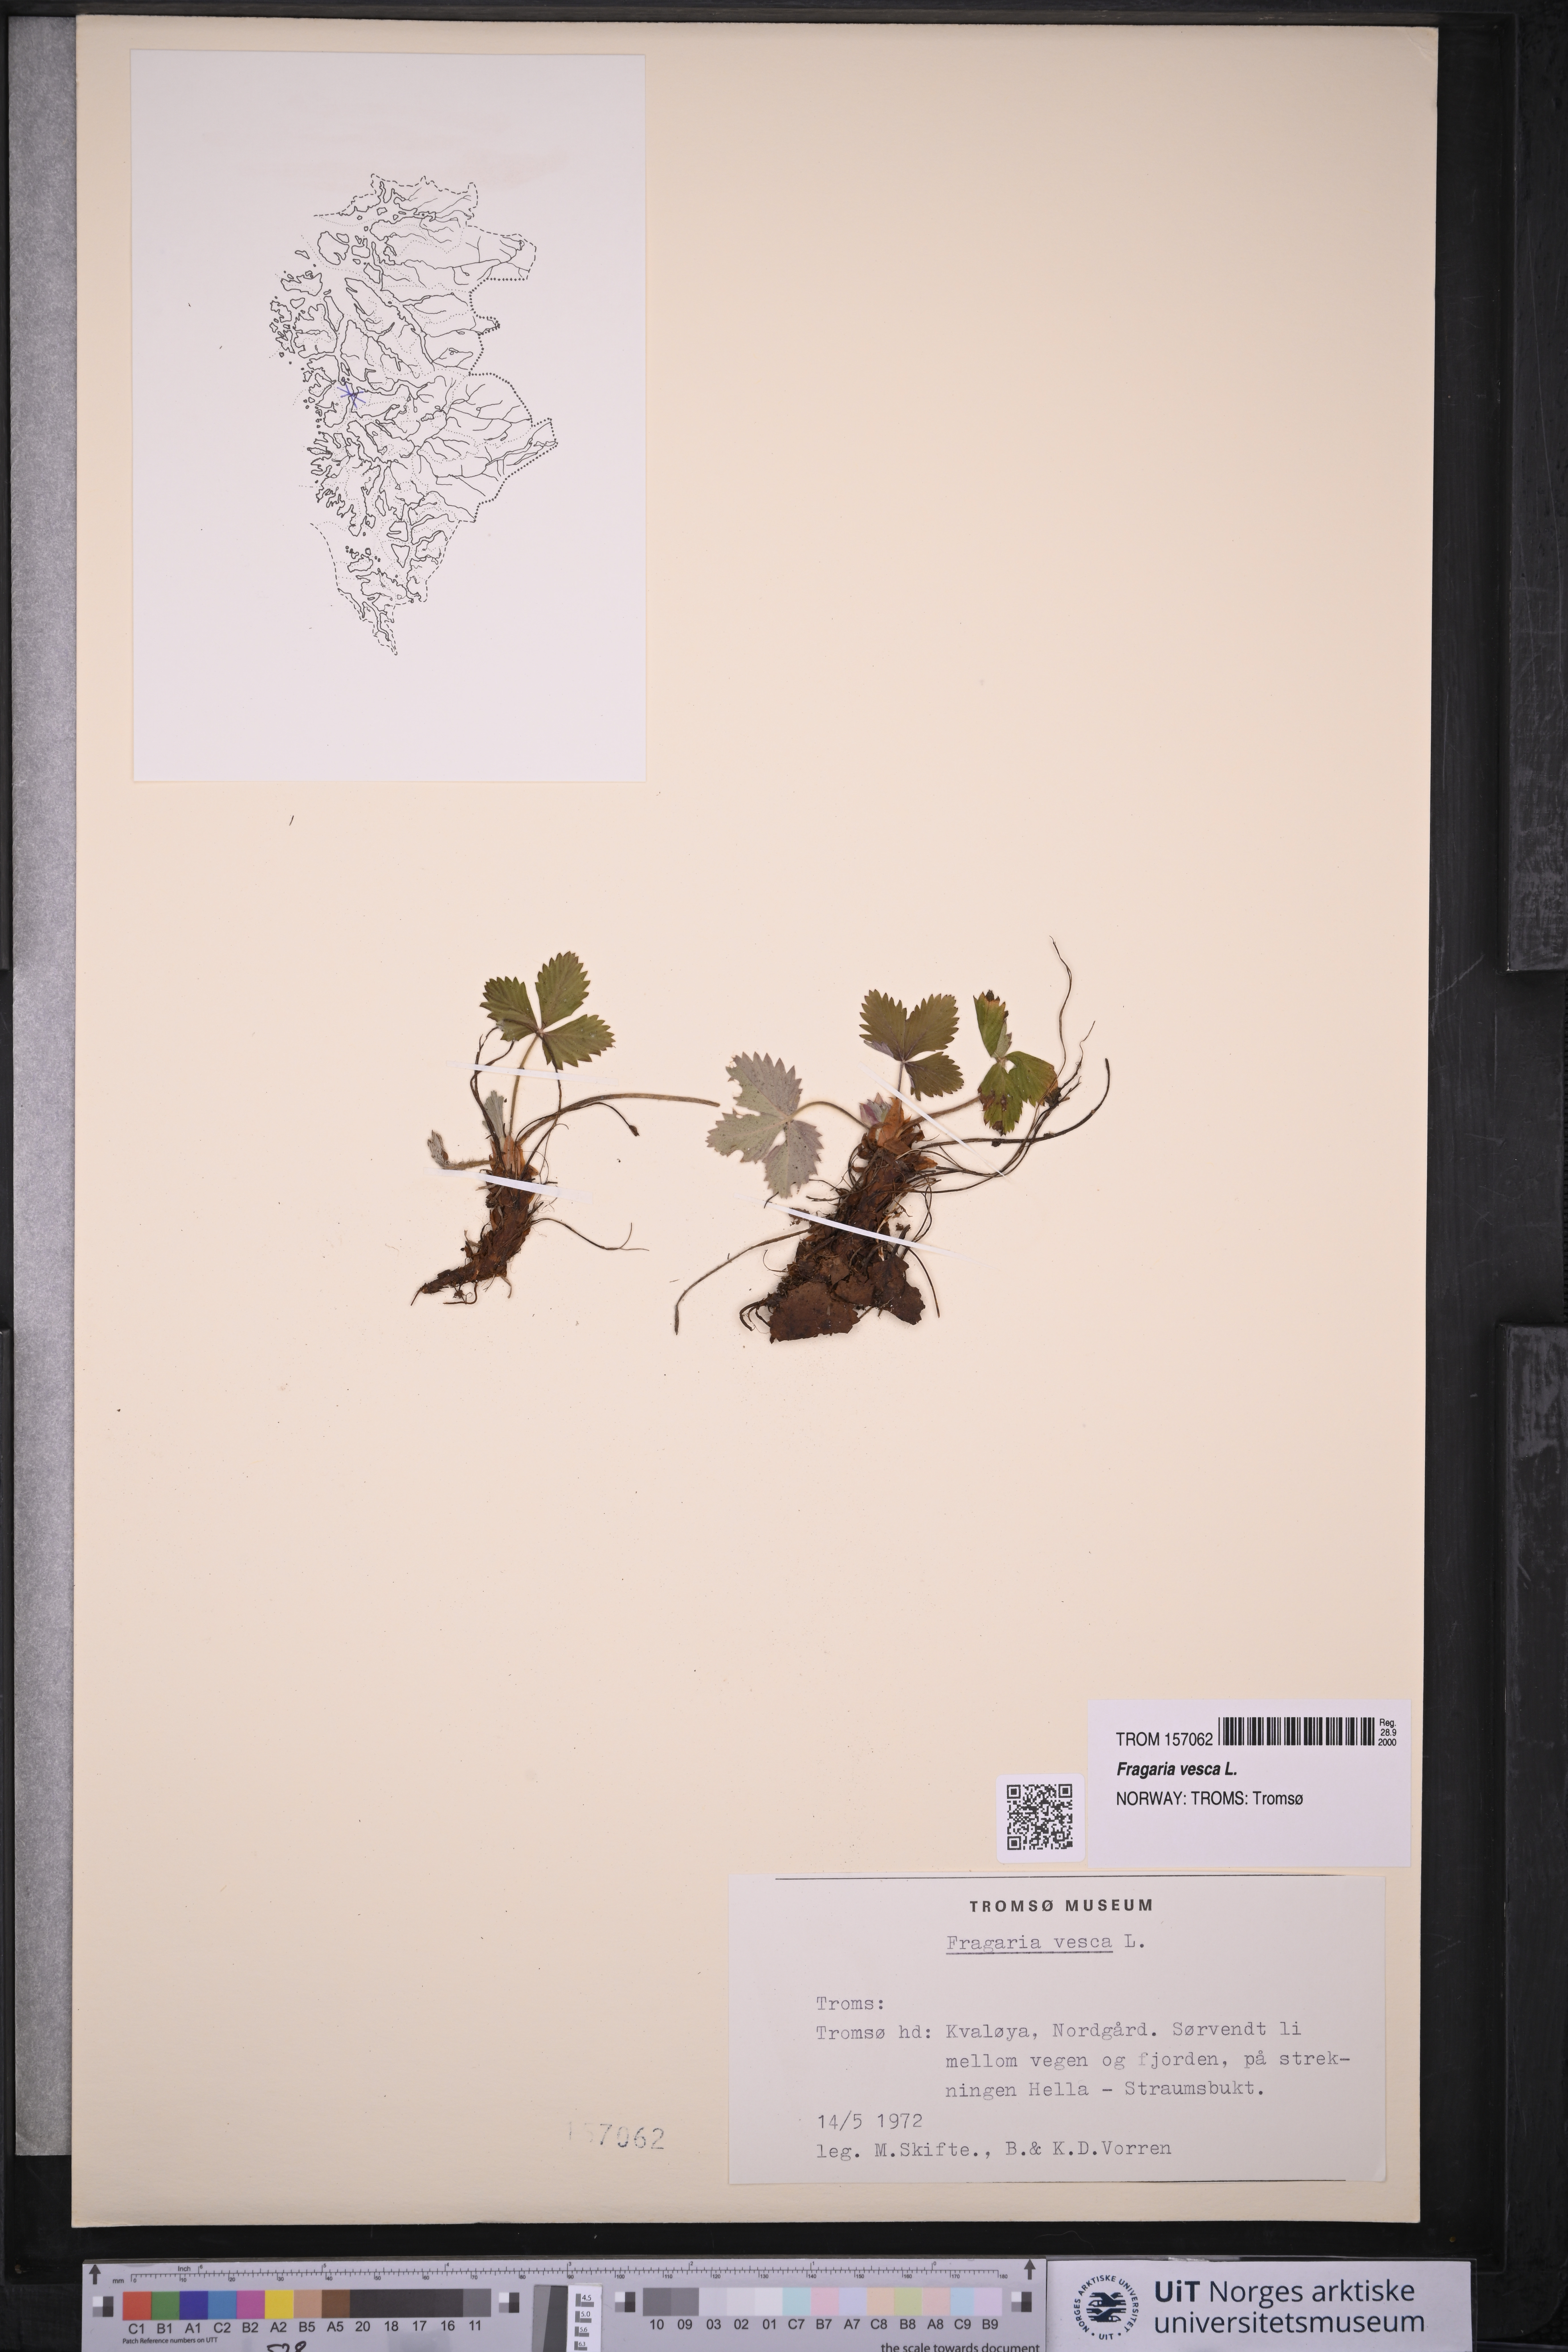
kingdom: Plantae
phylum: Tracheophyta
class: Magnoliopsida
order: Rosales
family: Rosaceae
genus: Fragaria
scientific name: Fragaria vesca
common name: Wild strawberry
